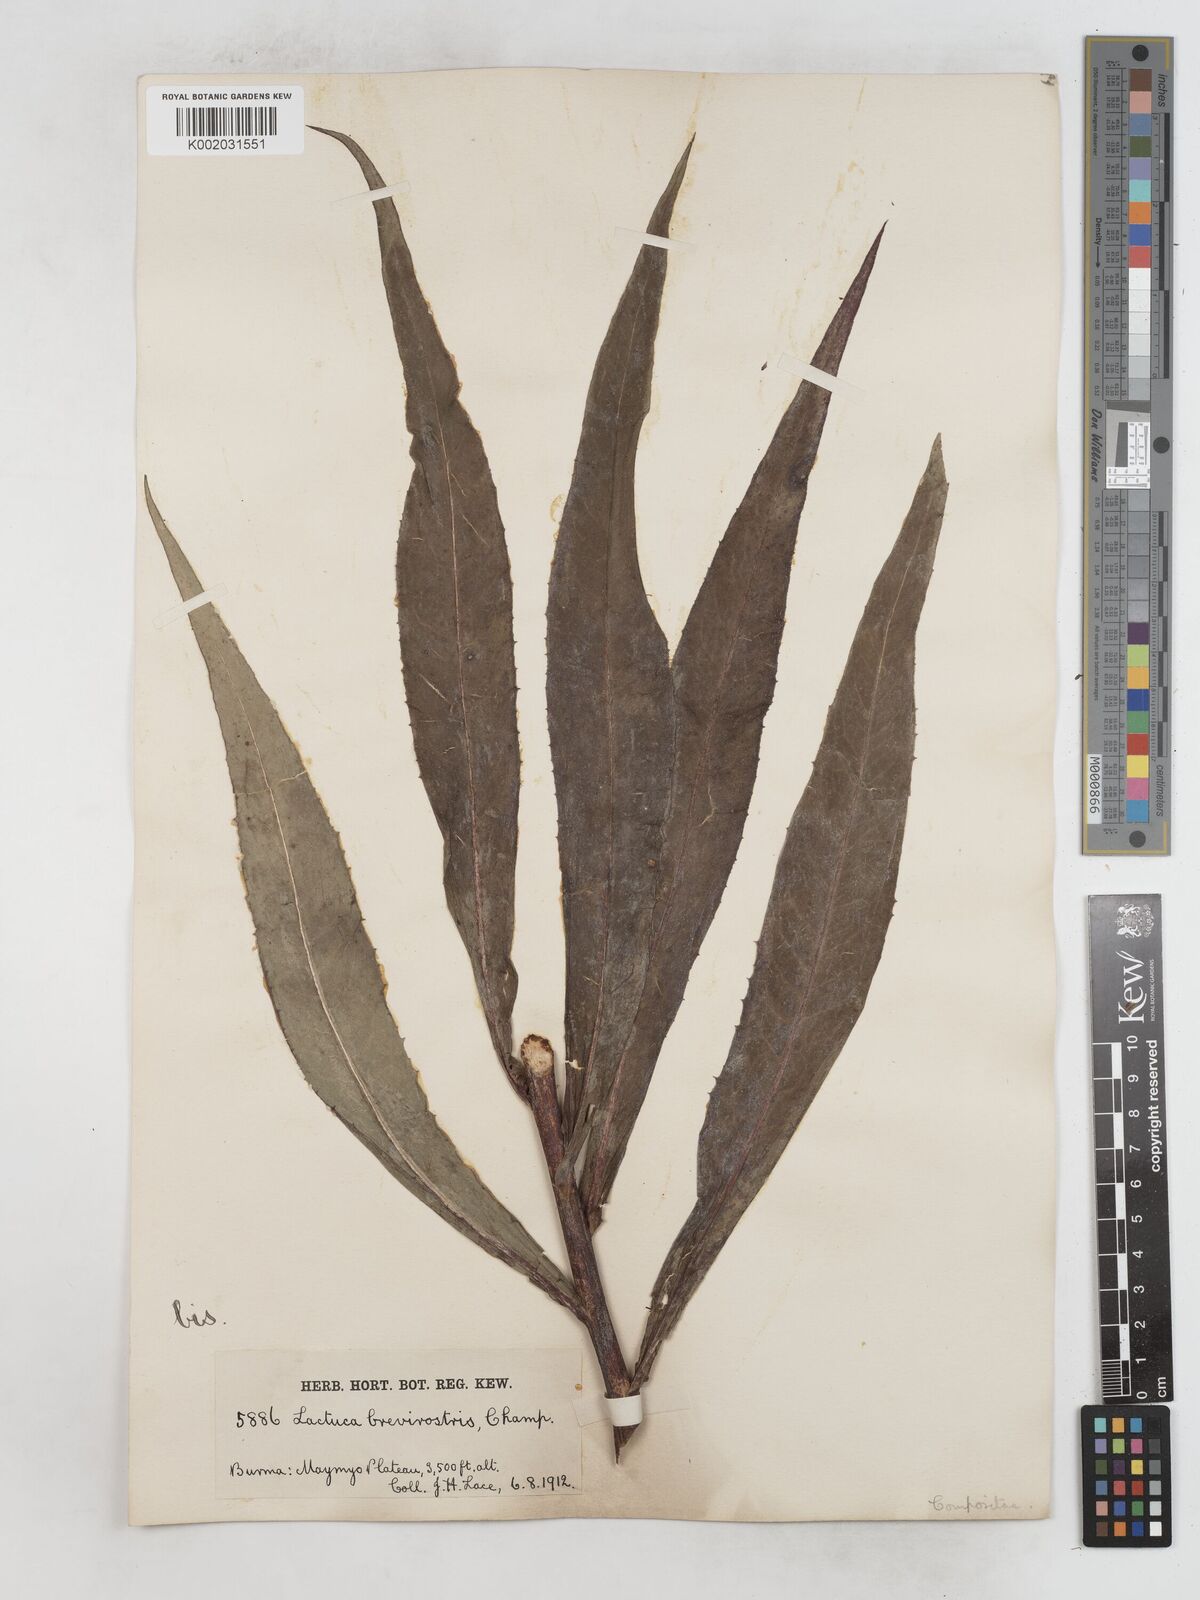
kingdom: Plantae
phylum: Tracheophyta
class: Magnoliopsida
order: Asterales
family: Asteraceae
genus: Lactuca
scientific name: Lactuca indica
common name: Wild lettuce
